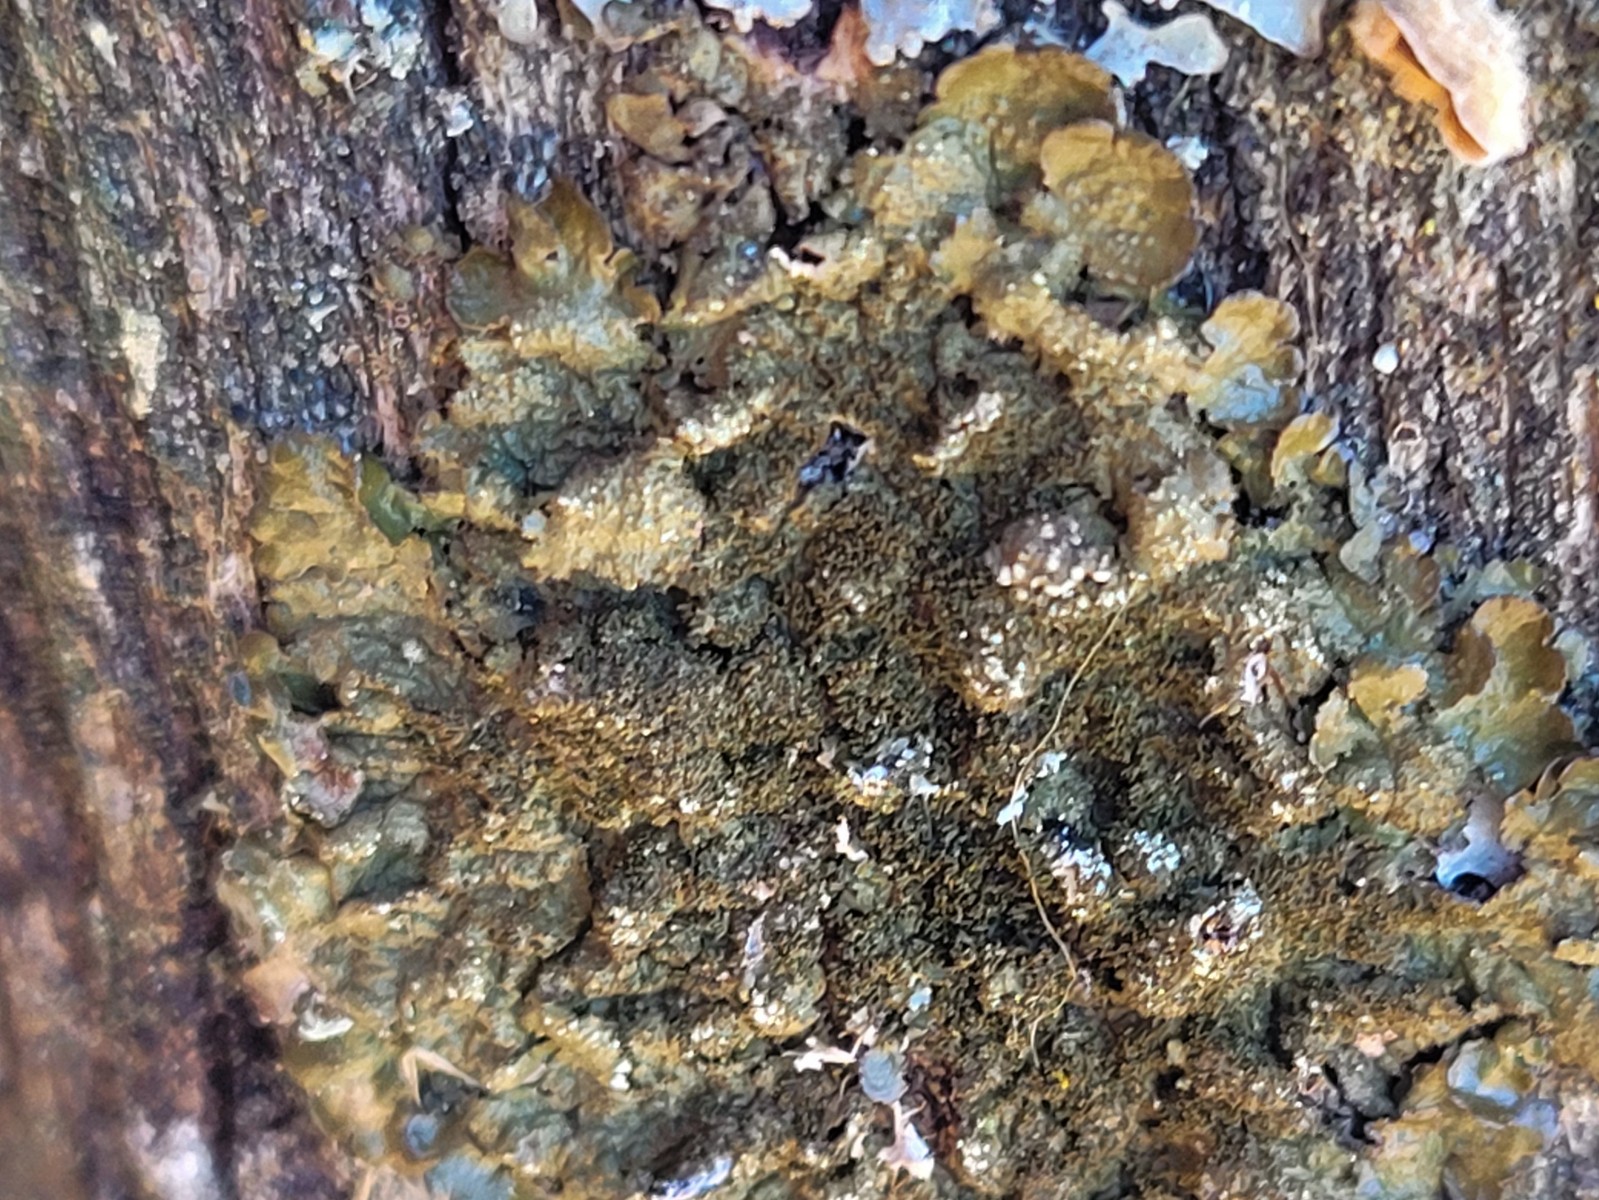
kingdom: Fungi
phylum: Ascomycota
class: Lecanoromycetes
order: Lecanorales
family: Parmeliaceae
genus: Melanelixia
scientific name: Melanelixia glabratula
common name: glinsende skållav
